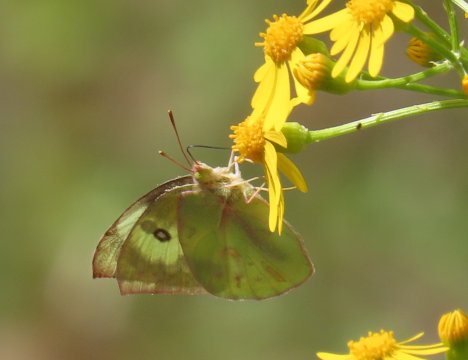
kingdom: Animalia
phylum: Arthropoda
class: Insecta
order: Lepidoptera
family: Pieridae
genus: Zerene
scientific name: Zerene cesonia
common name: Southern Dogface
